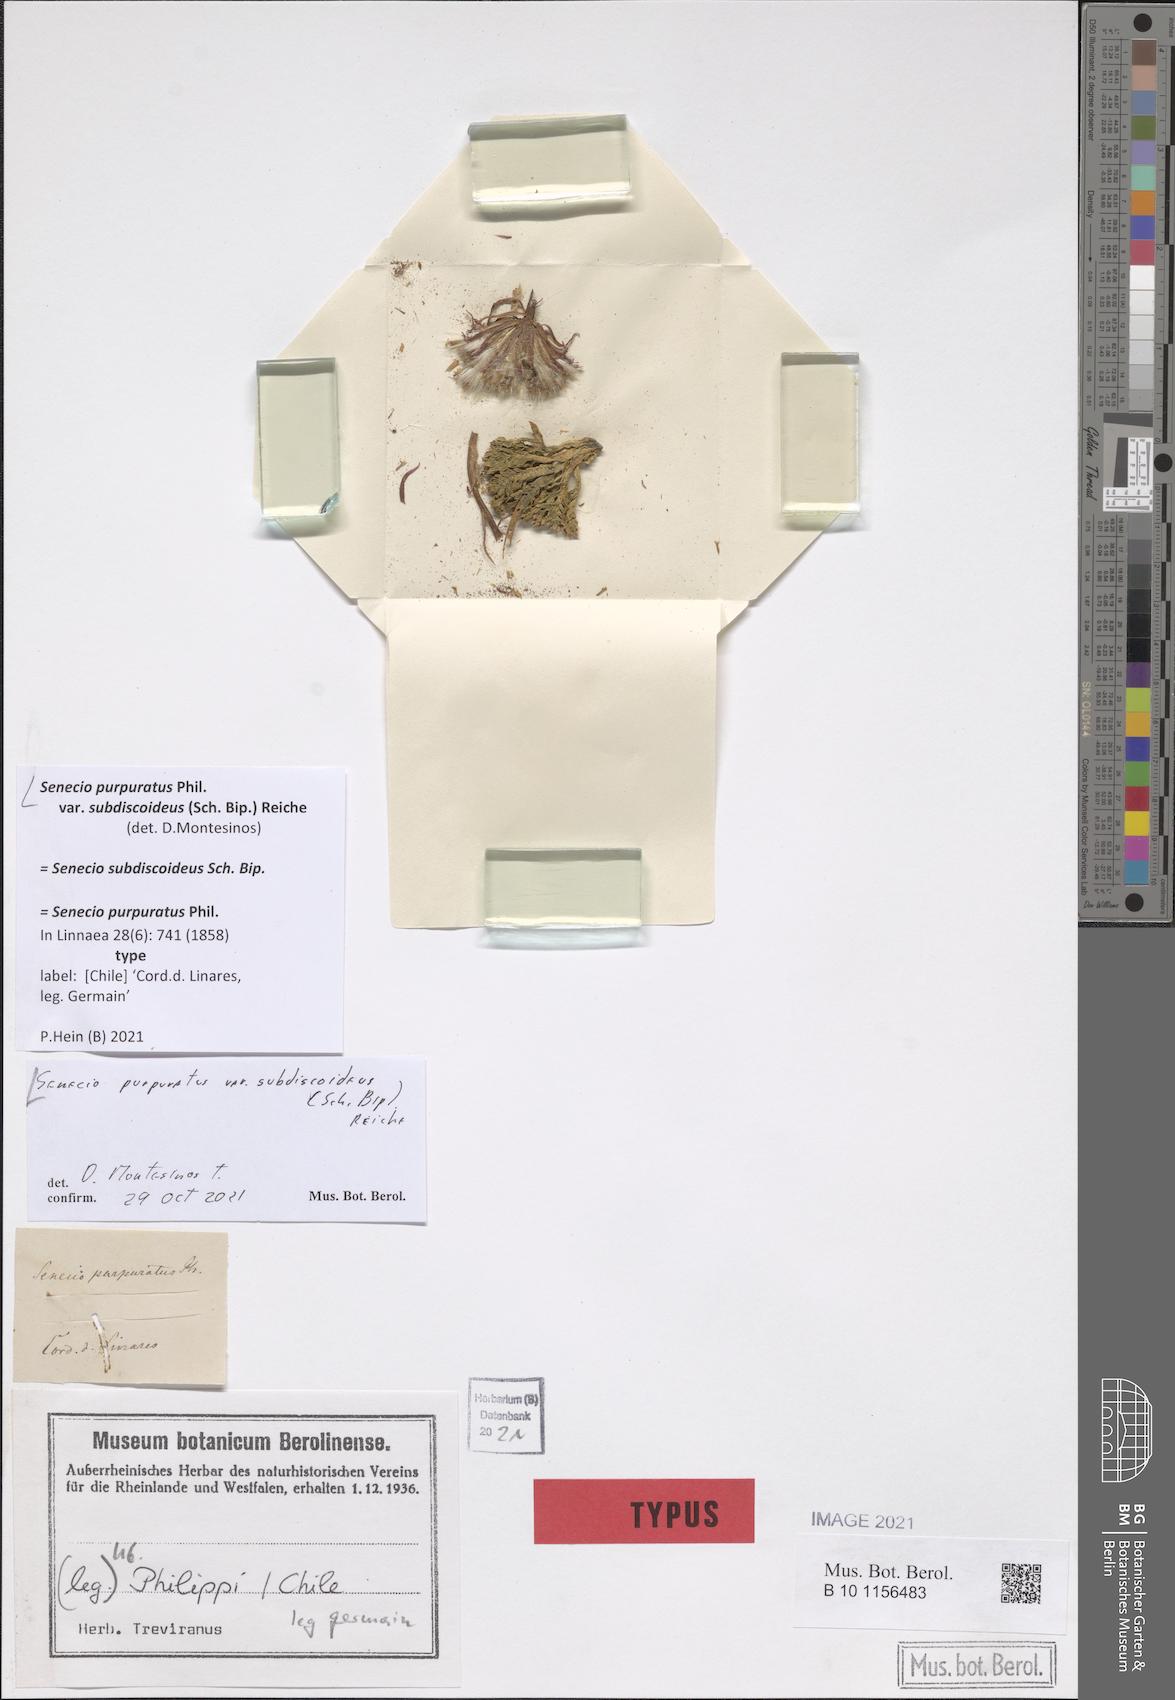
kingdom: Plantae
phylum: Tracheophyta
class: Magnoliopsida
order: Asterales
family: Asteraceae
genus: Senecio
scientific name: Senecio kingii
